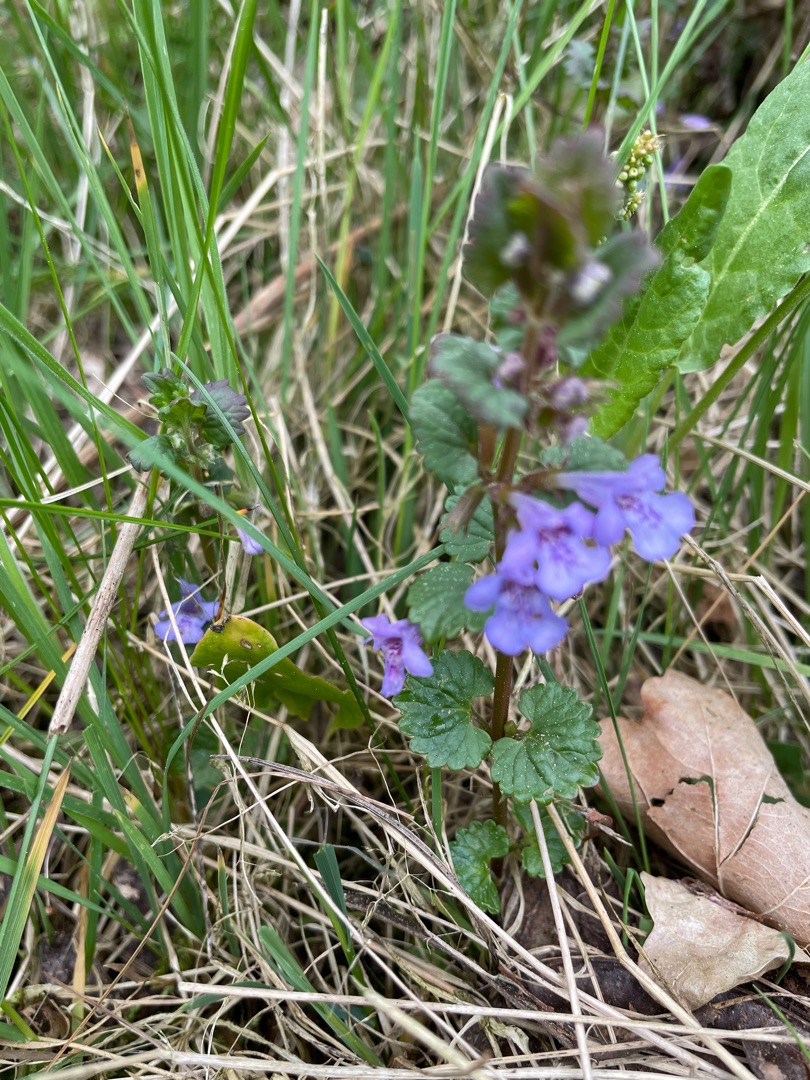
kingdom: Plantae
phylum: Tracheophyta
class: Magnoliopsida
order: Lamiales
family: Lamiaceae
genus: Glechoma
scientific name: Glechoma hederacea
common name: Korsknap
